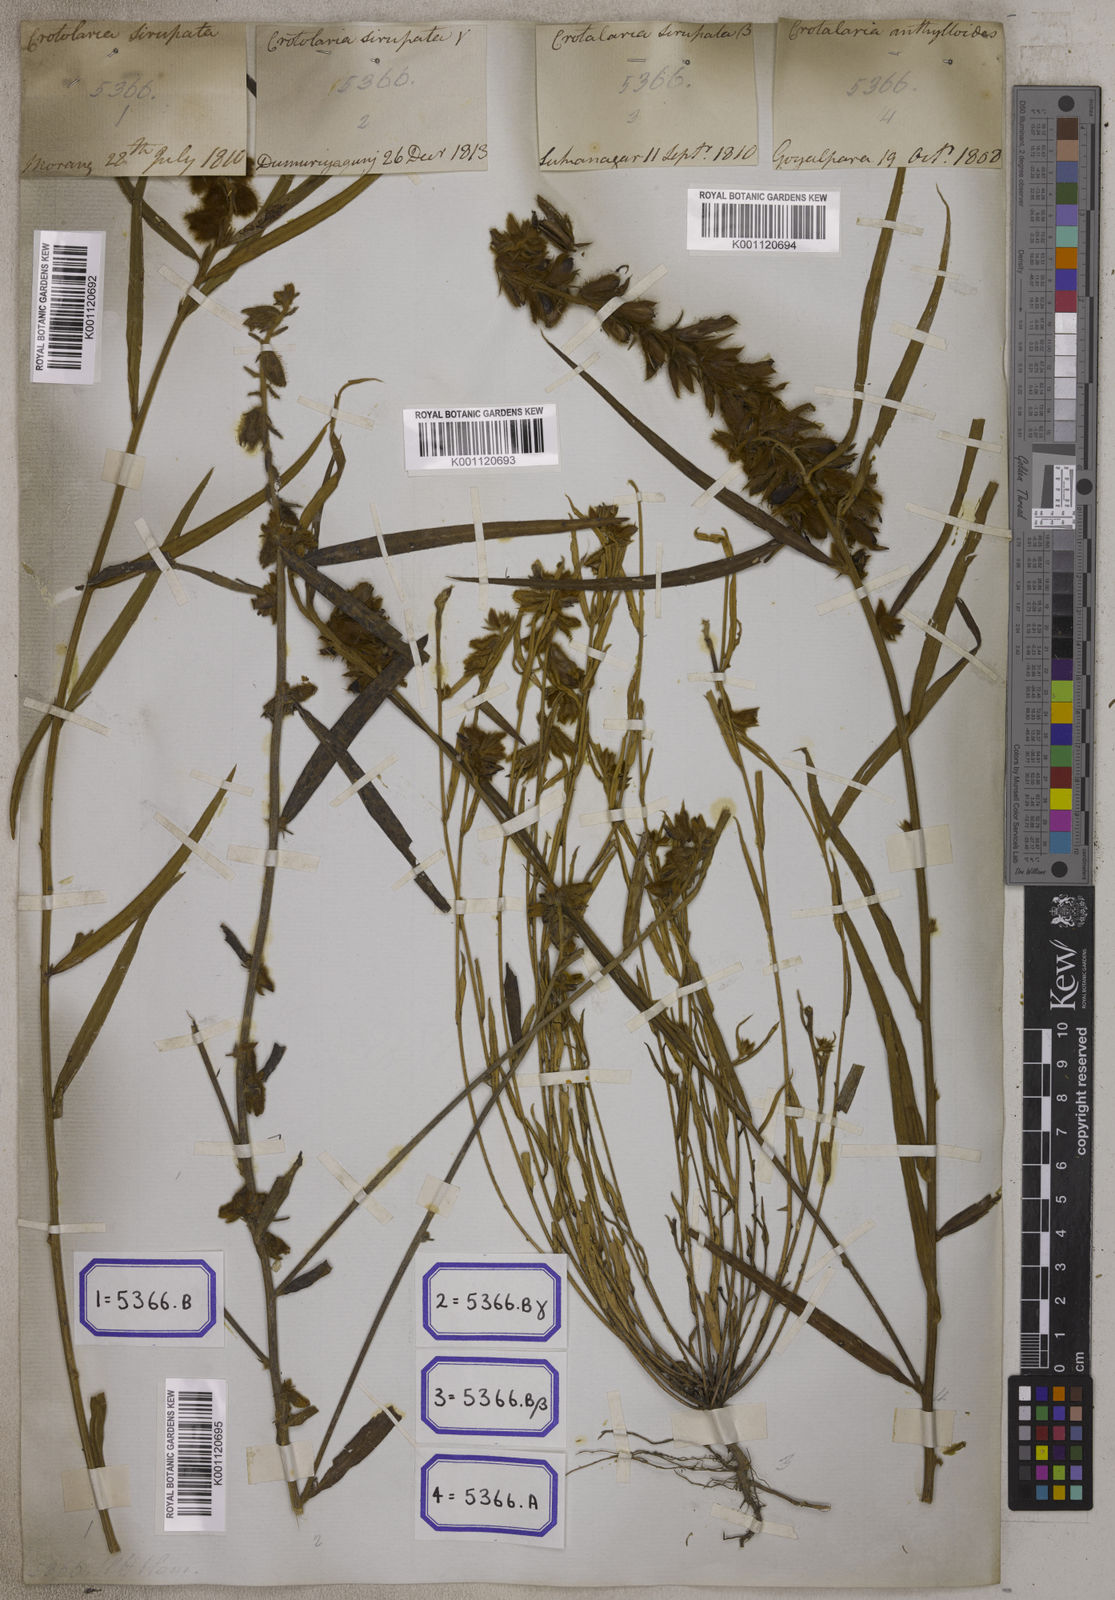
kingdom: Plantae
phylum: Tracheophyta
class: Magnoliopsida
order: Fabales
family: Fabaceae
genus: Crotalaria
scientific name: Crotalaria sessiliflora
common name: Rattlebox
